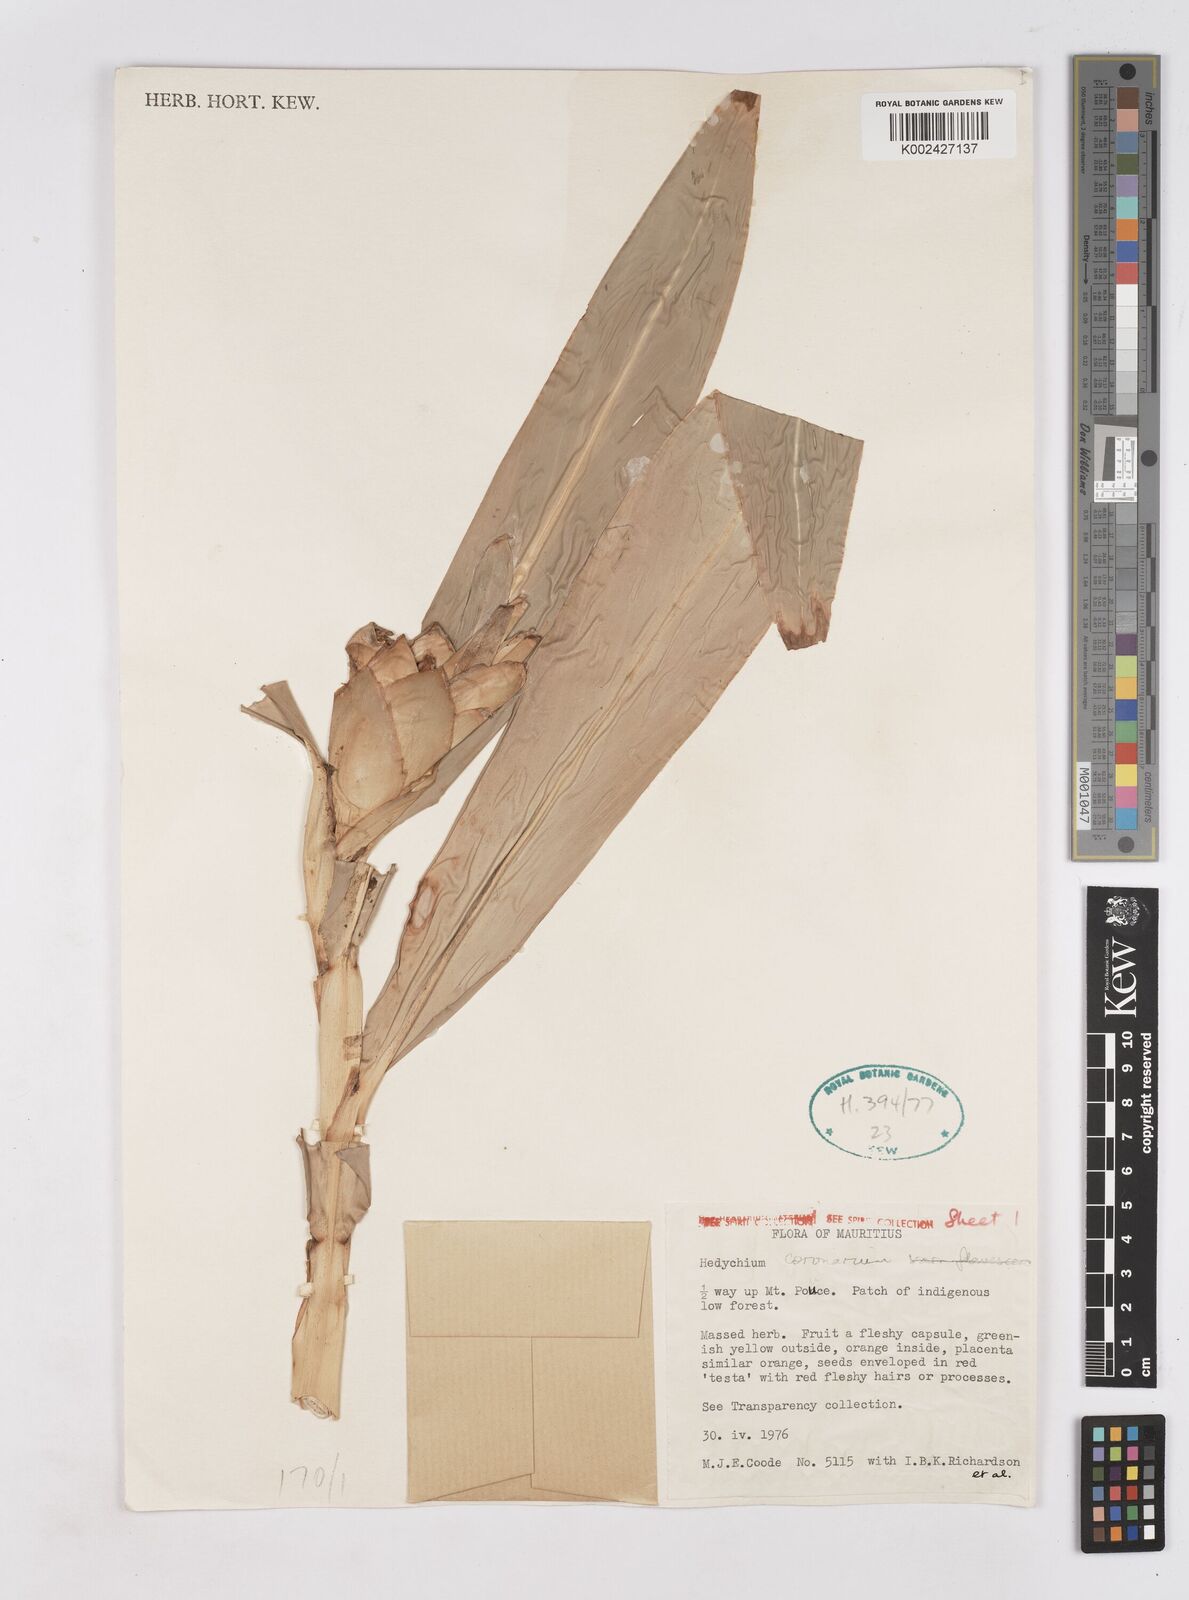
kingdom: Plantae
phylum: Tracheophyta
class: Liliopsida
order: Zingiberales
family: Zingiberaceae
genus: Hedychium
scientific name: Hedychium coronarium
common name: White garland-lily
